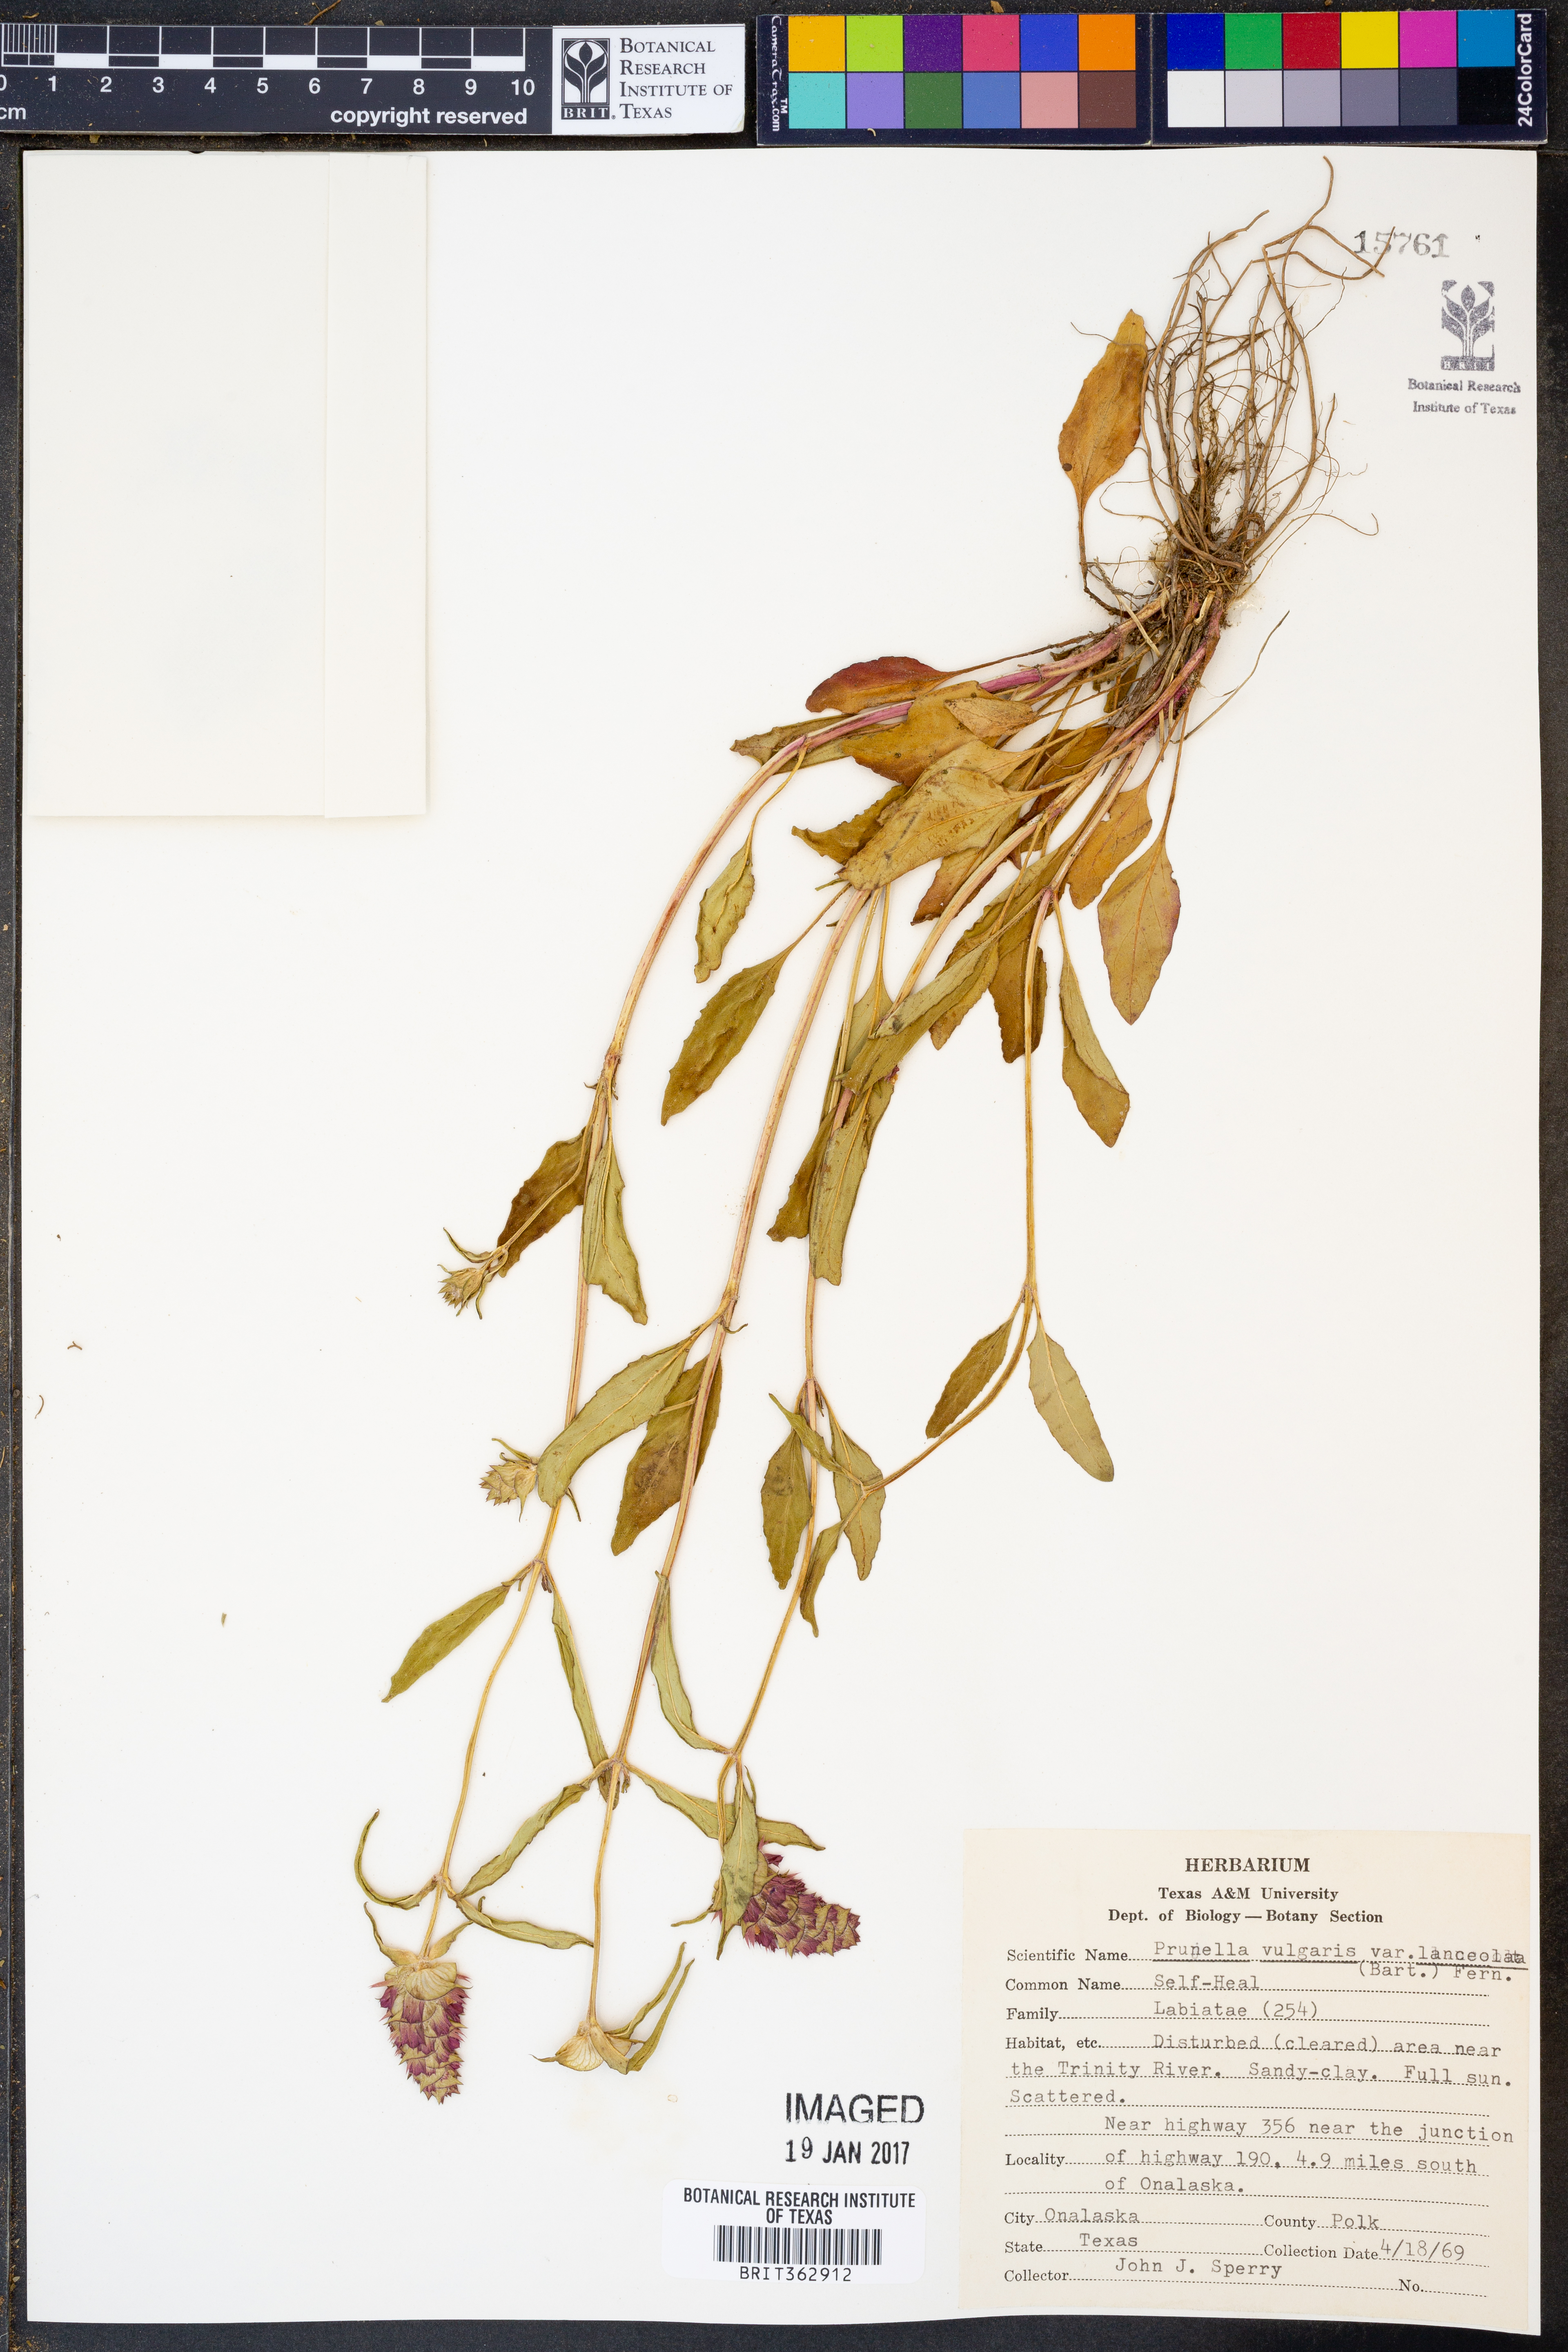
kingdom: Plantae
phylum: Tracheophyta
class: Magnoliopsida
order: Lamiales
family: Lamiaceae
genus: Prunella
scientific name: Prunella vulgaris
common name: Heal-all
